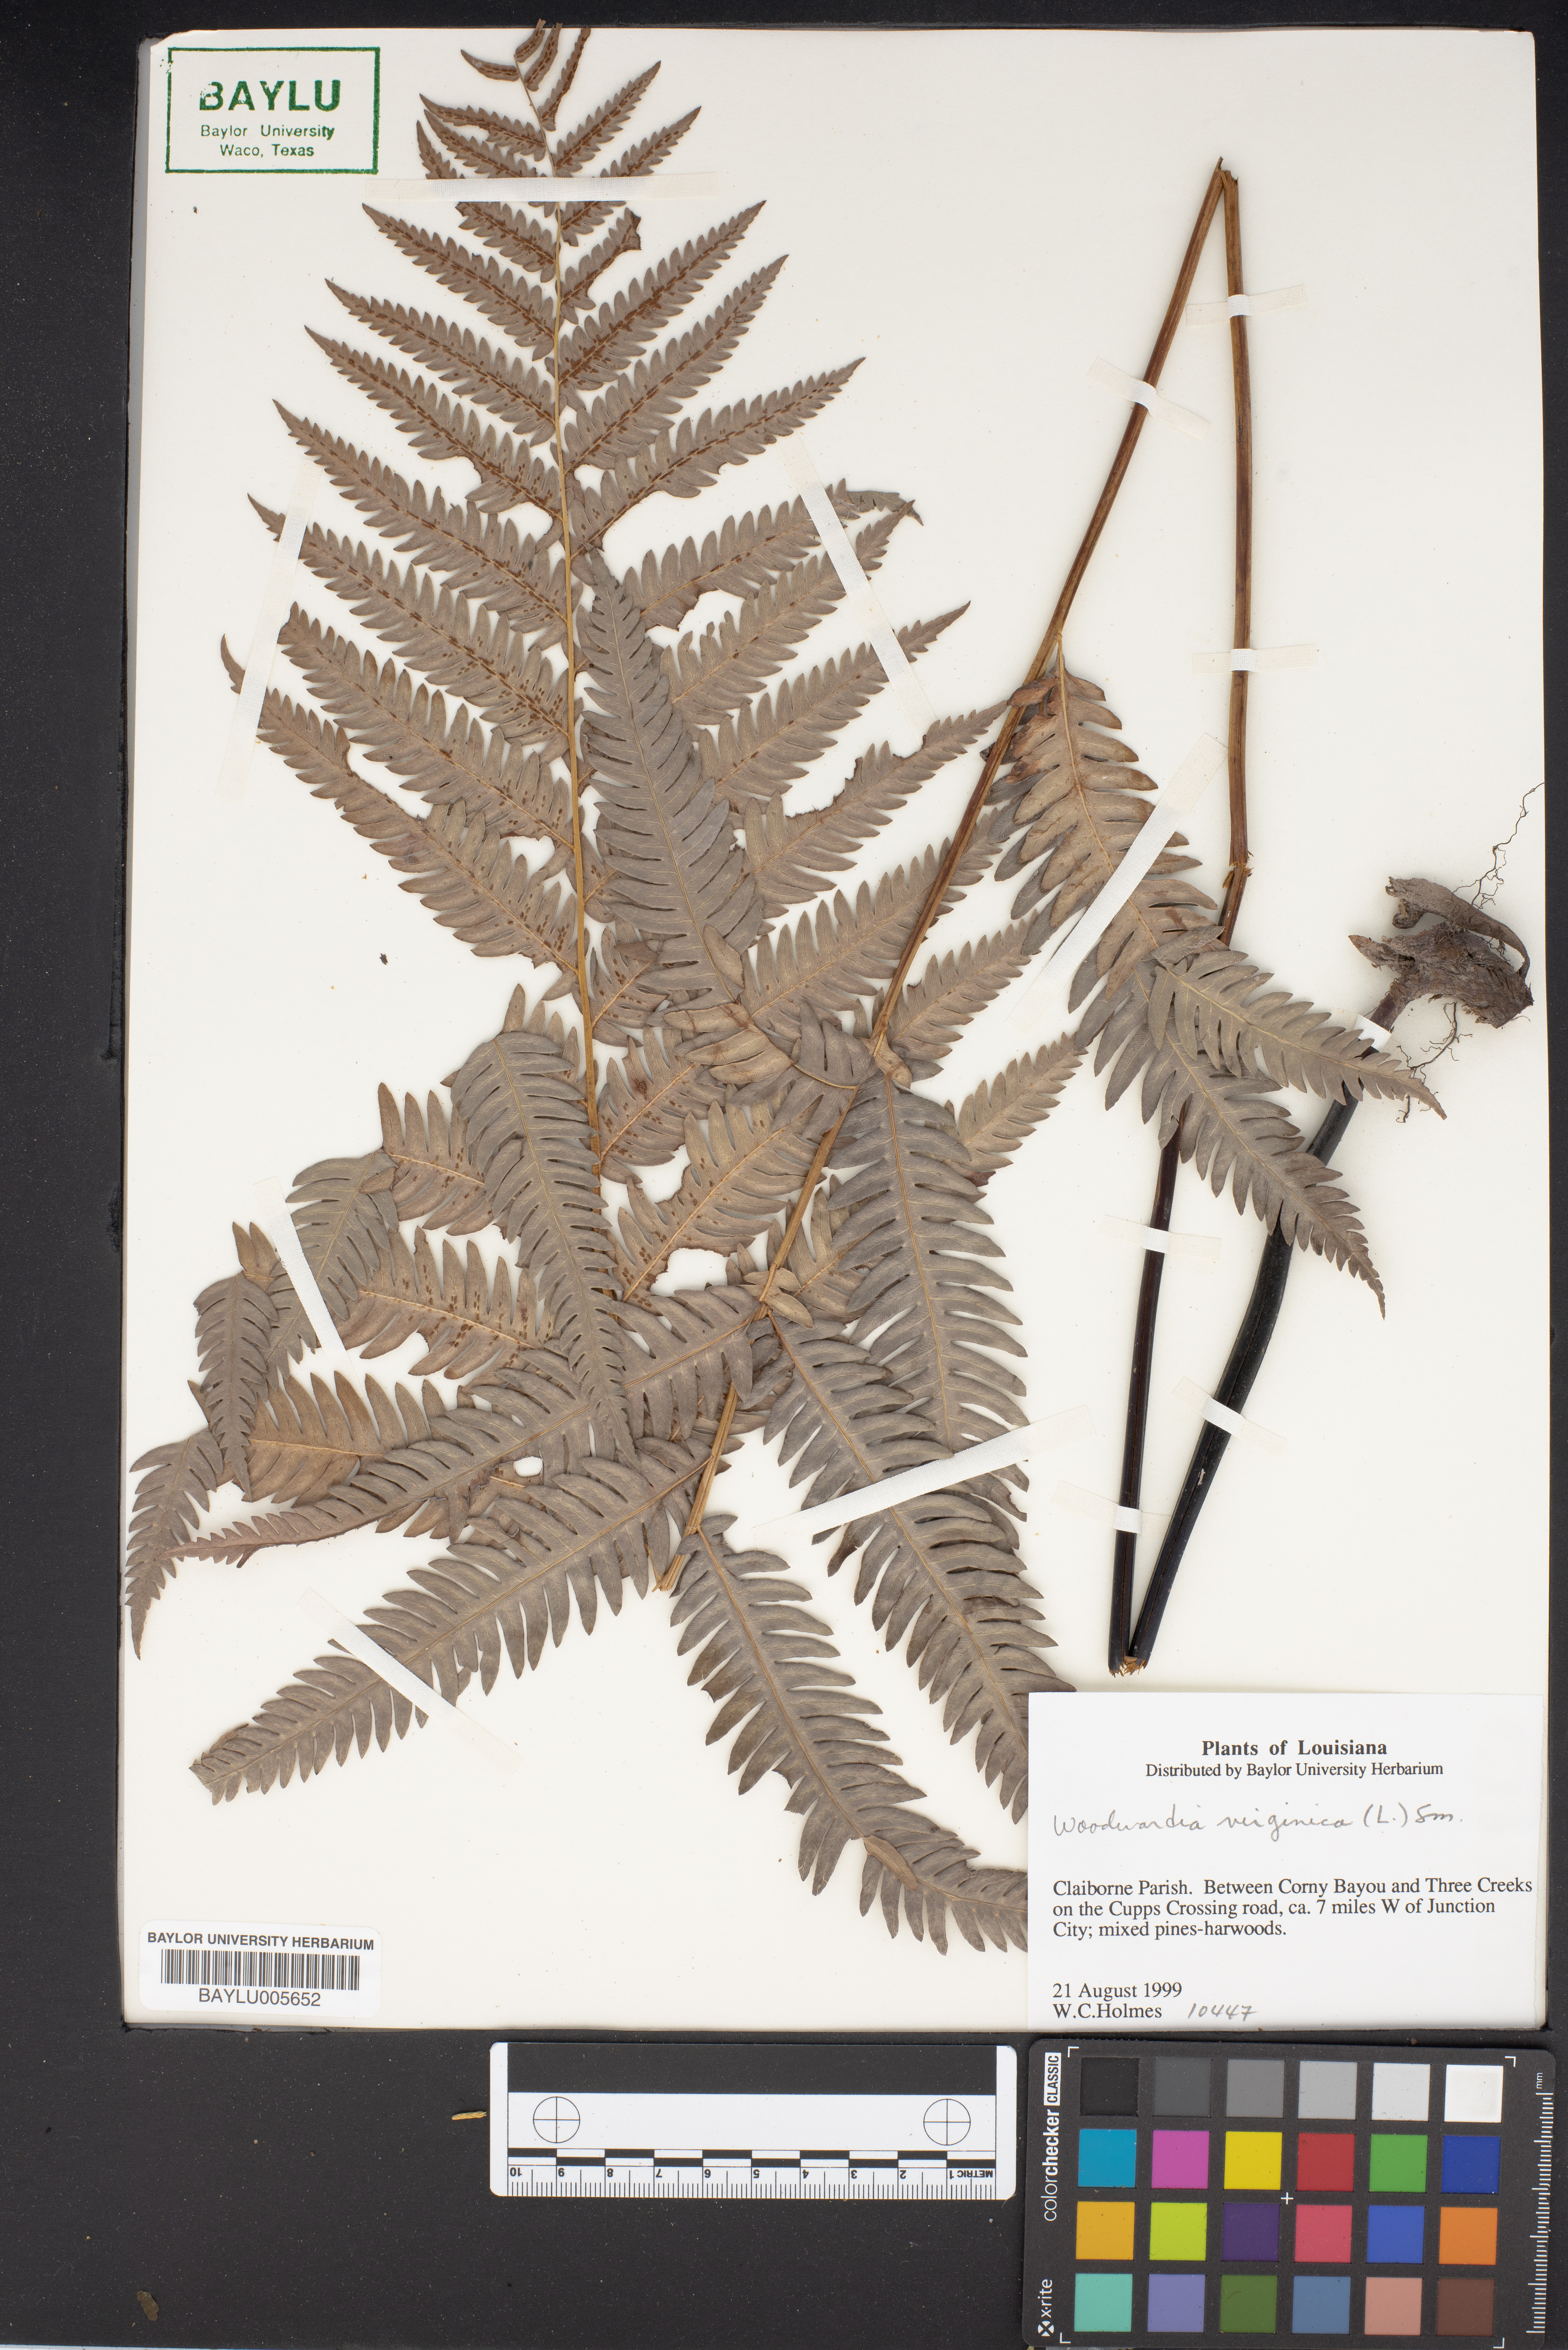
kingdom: Plantae
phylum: Tracheophyta
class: Polypodiopsida
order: Polypodiales
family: Blechnaceae
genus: Anchistea
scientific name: Anchistea virginica
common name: Virginia chain fern
